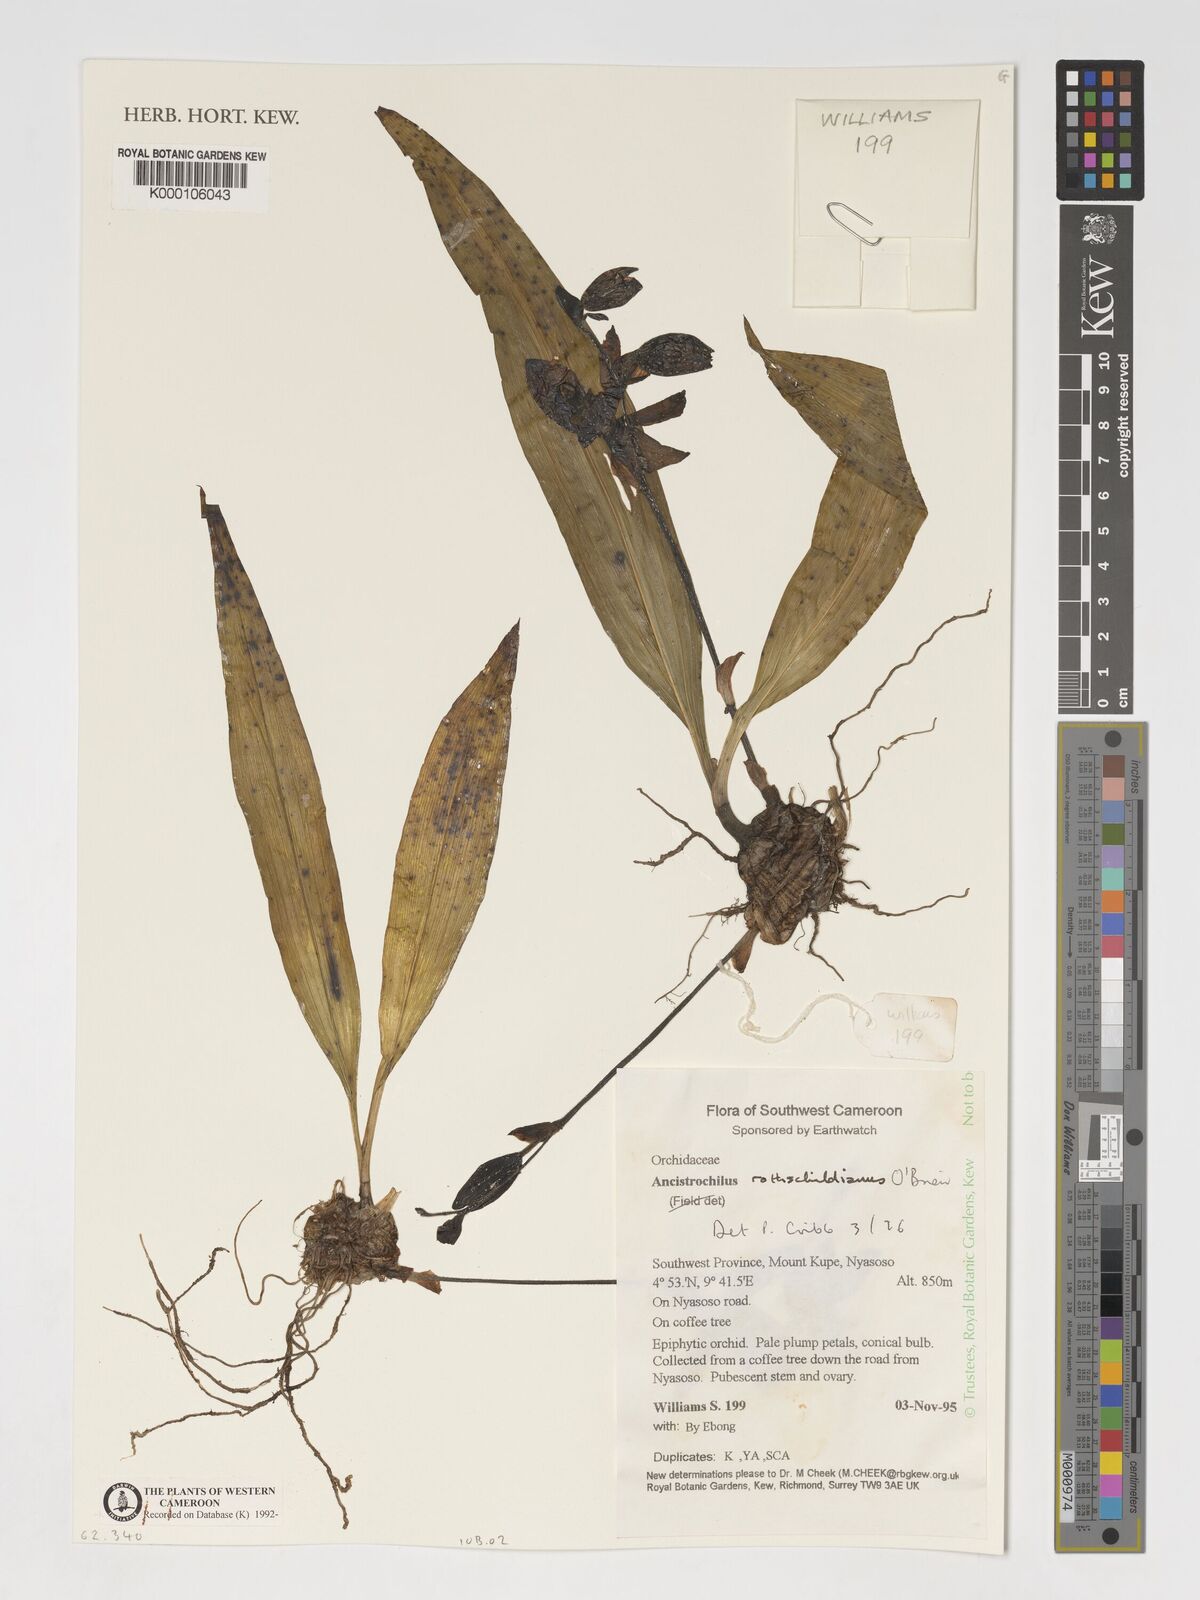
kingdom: Plantae
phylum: Tracheophyta
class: Liliopsida
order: Asparagales
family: Orchidaceae
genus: Ancistrochilus
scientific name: Ancistrochilus rothschildianus
